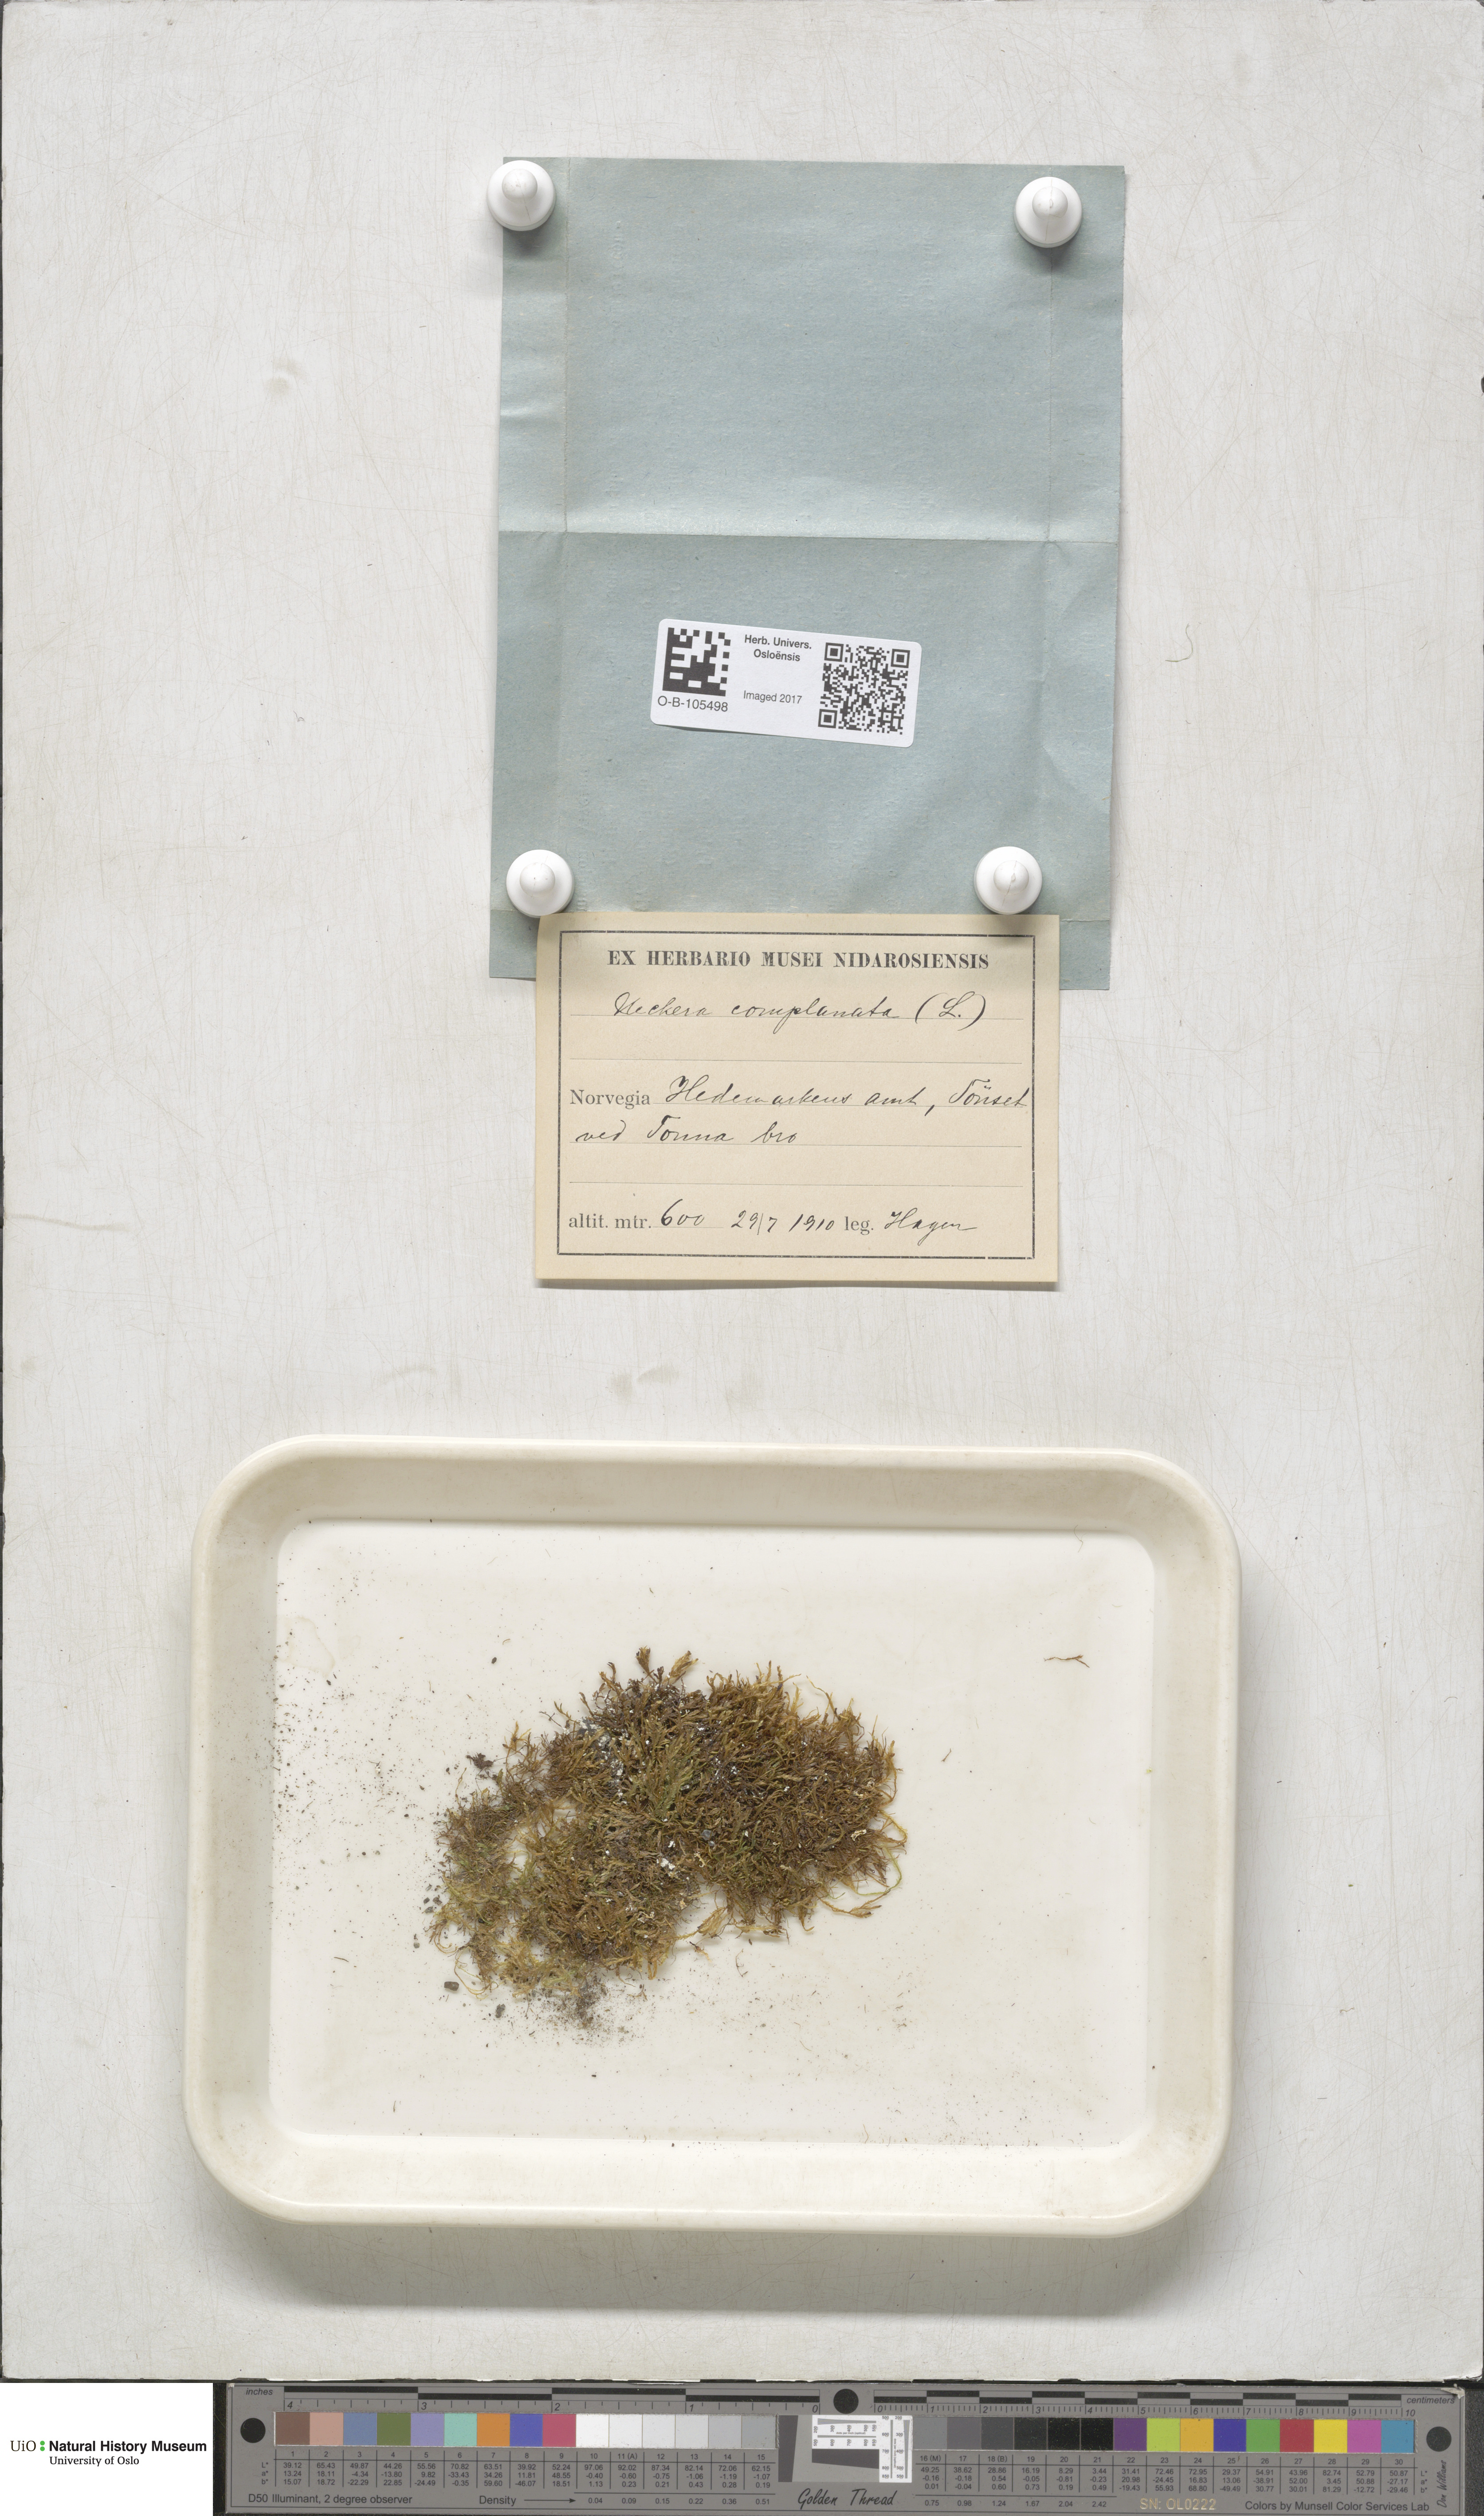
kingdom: Plantae
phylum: Bryophyta
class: Bryopsida
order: Hypnales
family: Neckeraceae
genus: Alleniella
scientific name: Alleniella complanata
